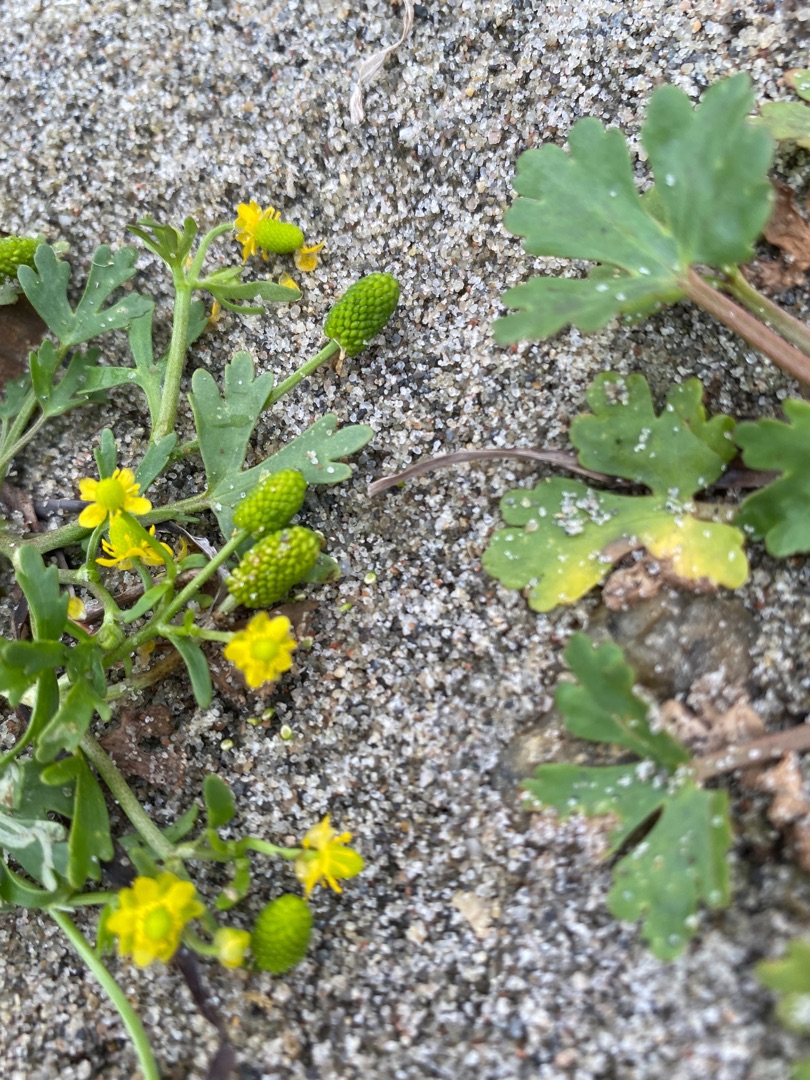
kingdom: Plantae
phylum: Tracheophyta
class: Magnoliopsida
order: Ranunculales
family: Ranunculaceae
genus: Ranunculus
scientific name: Ranunculus sceleratus
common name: Tigger-ranunkel
